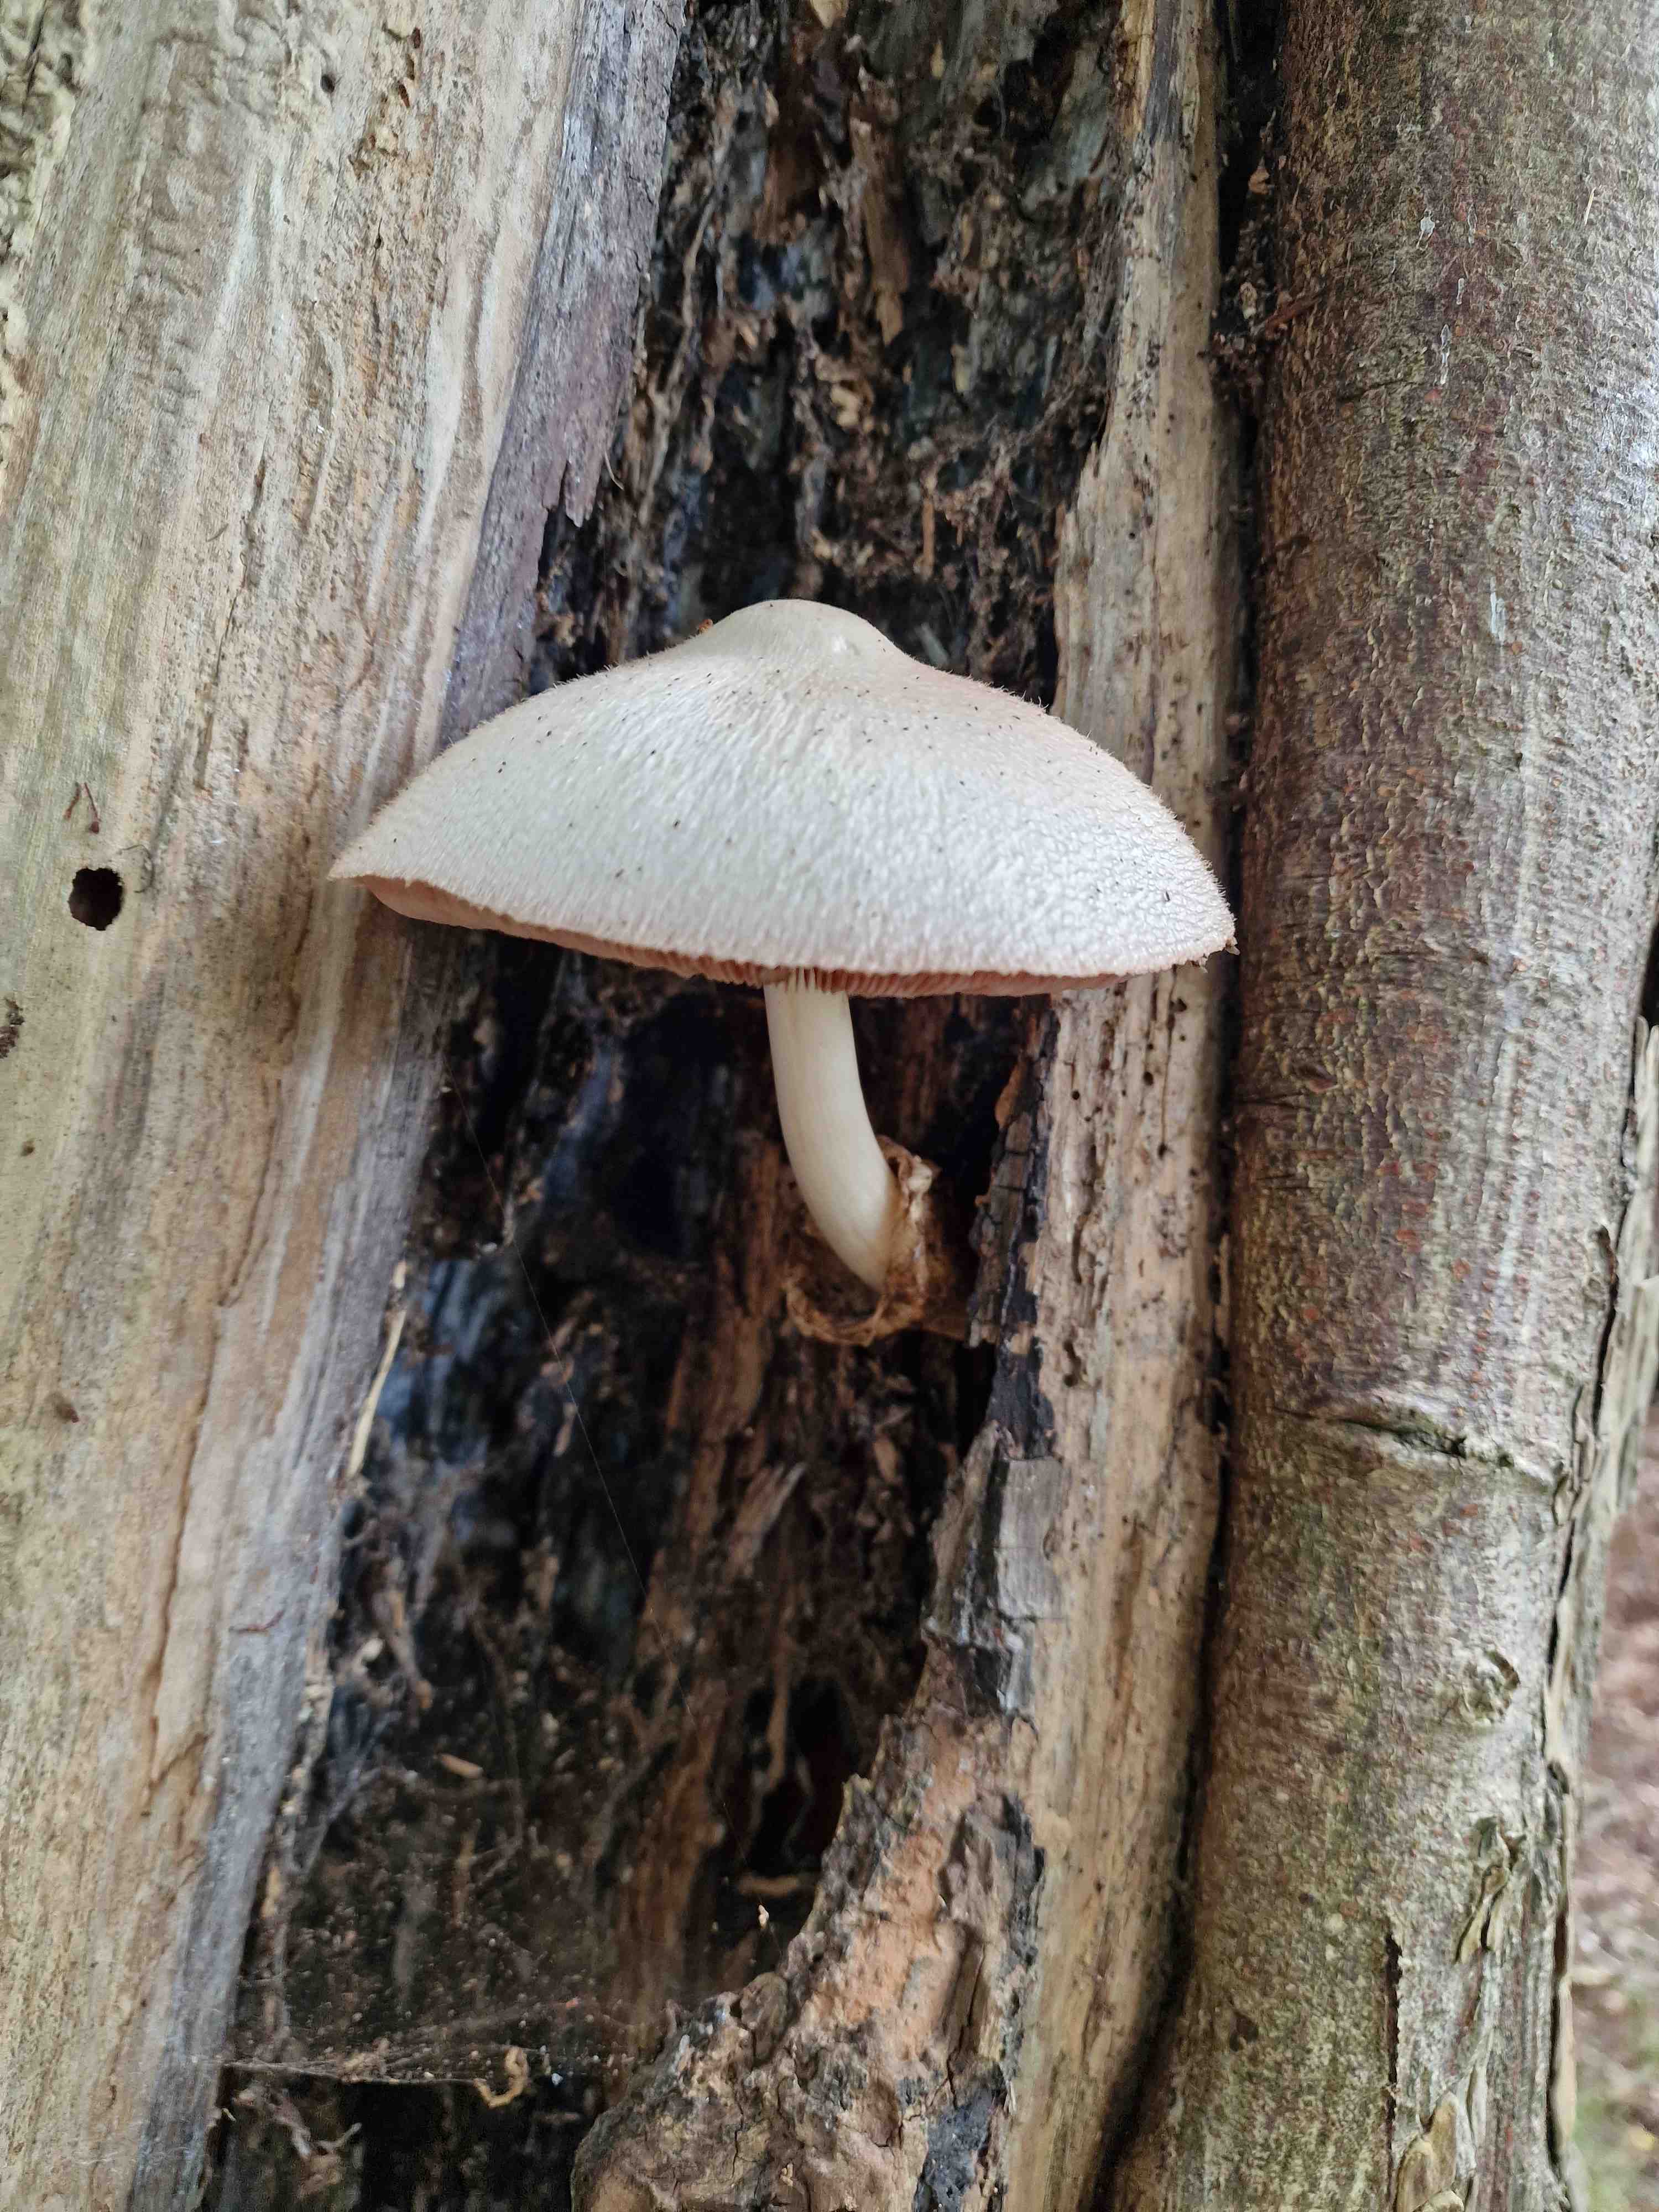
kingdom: Fungi
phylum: Basidiomycota
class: Agaricomycetes
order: Agaricales
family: Pluteaceae
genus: Volvariella
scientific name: Volvariella bombycina
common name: silkehåret posesvamp
